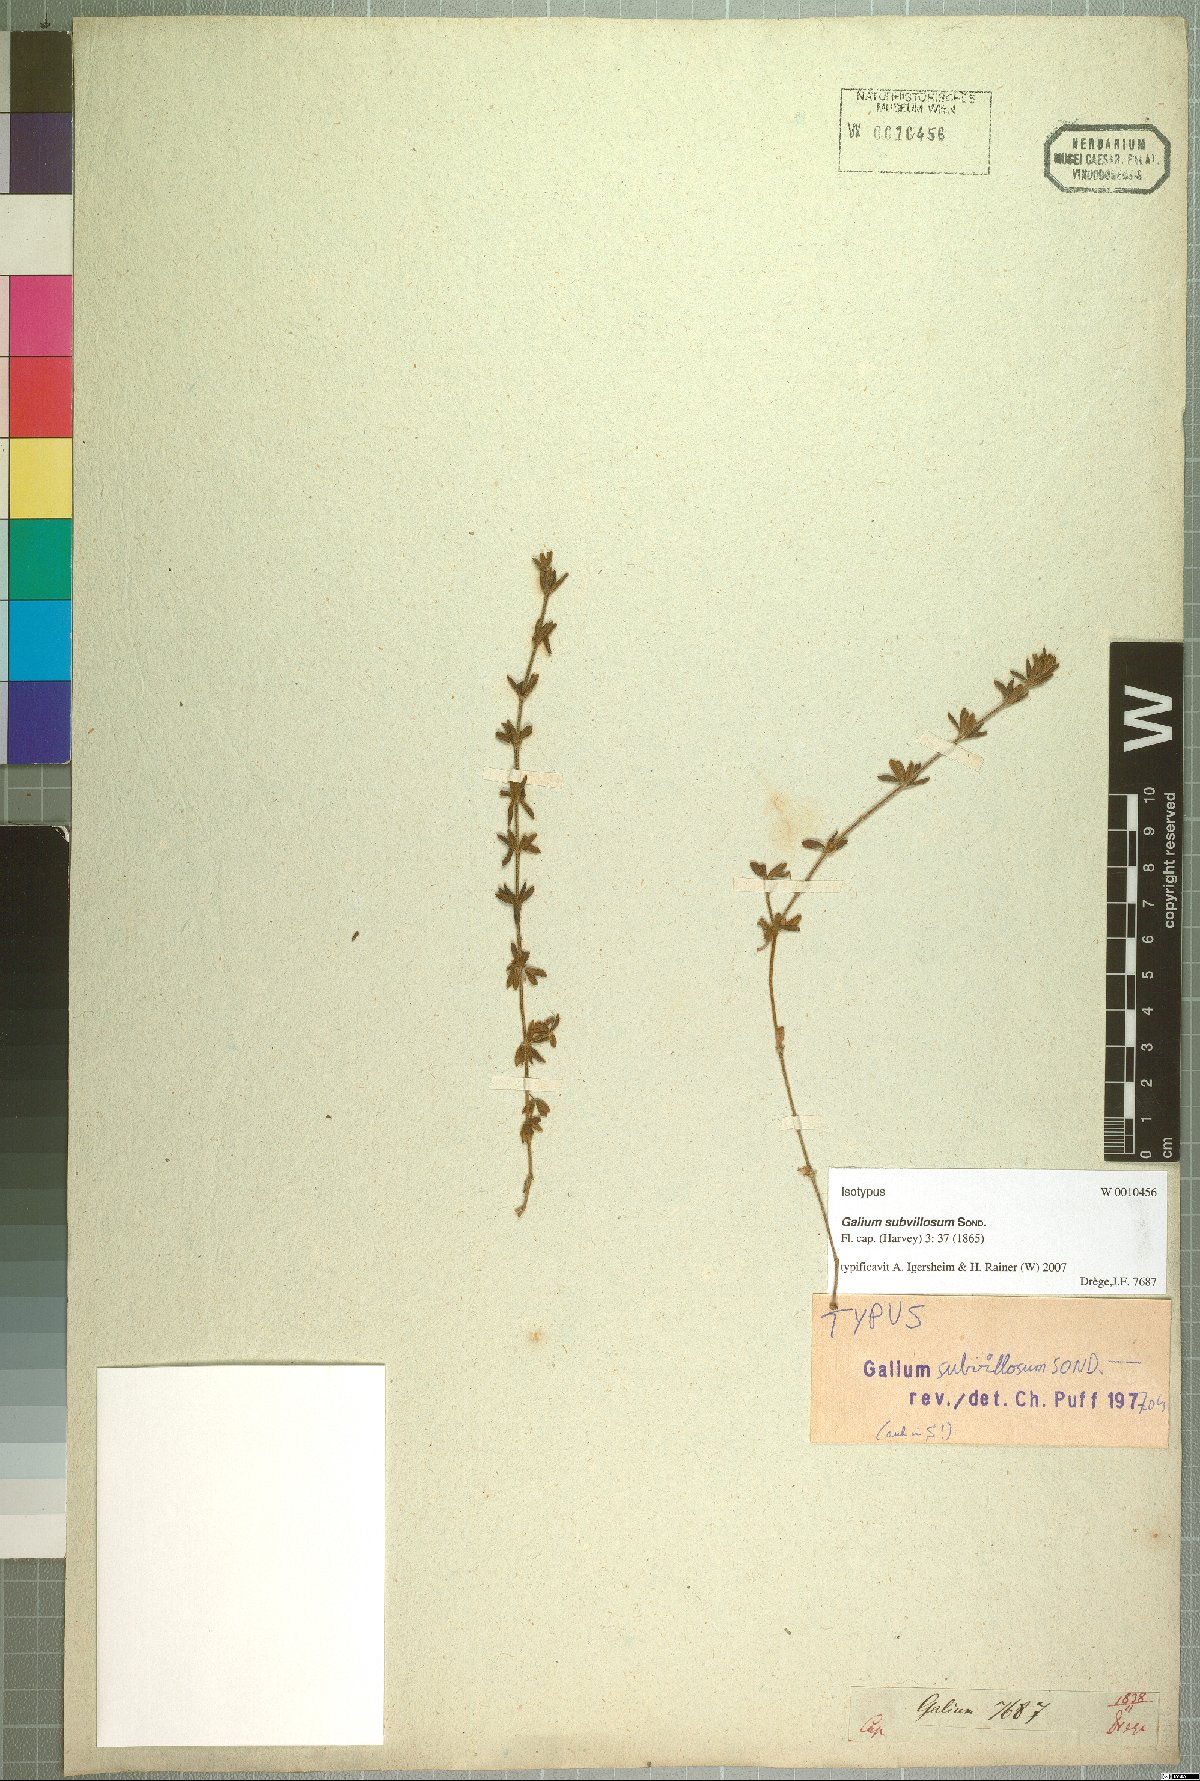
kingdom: Plantae
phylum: Tracheophyta
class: Magnoliopsida
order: Gentianales
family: Rubiaceae
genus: Galium
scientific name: Galium subvillosum
